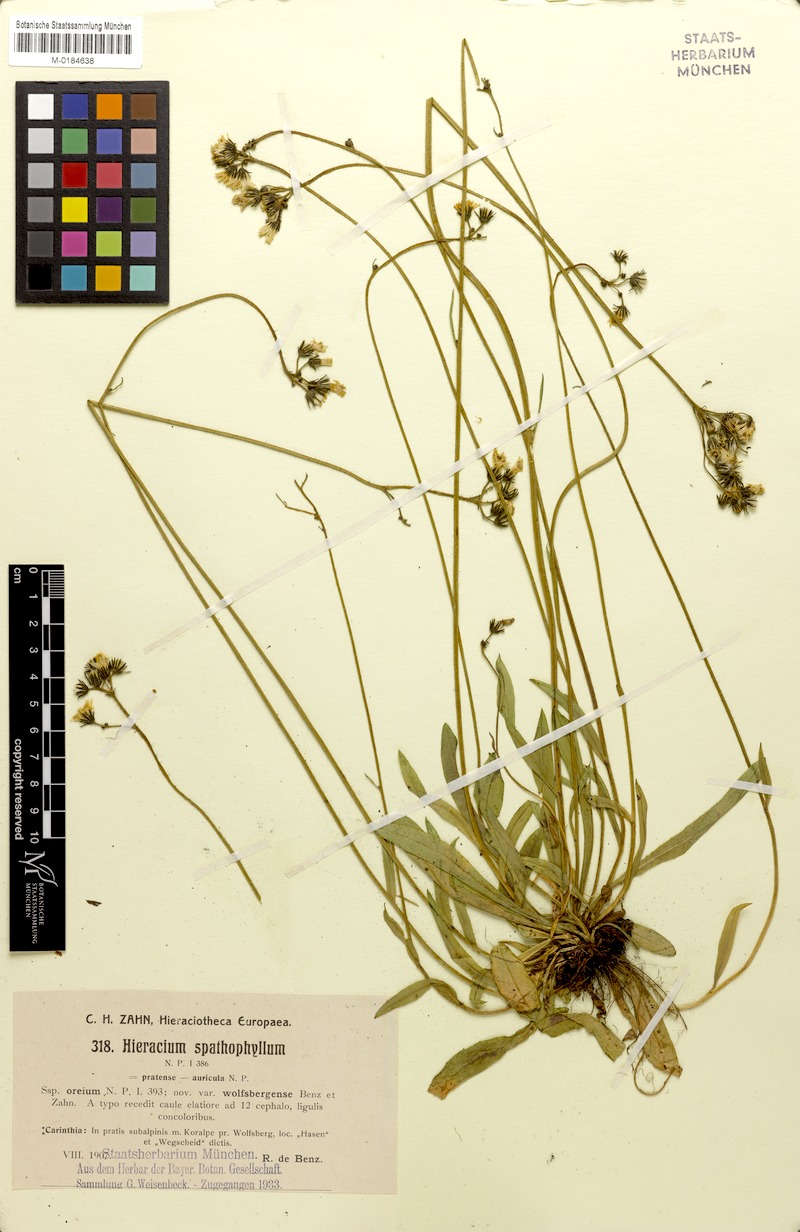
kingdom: Plantae
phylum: Tracheophyta
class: Magnoliopsida
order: Asterales
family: Asteraceae
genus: Pilosella
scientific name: Pilosella floribunda
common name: Glaucous hawkweed
